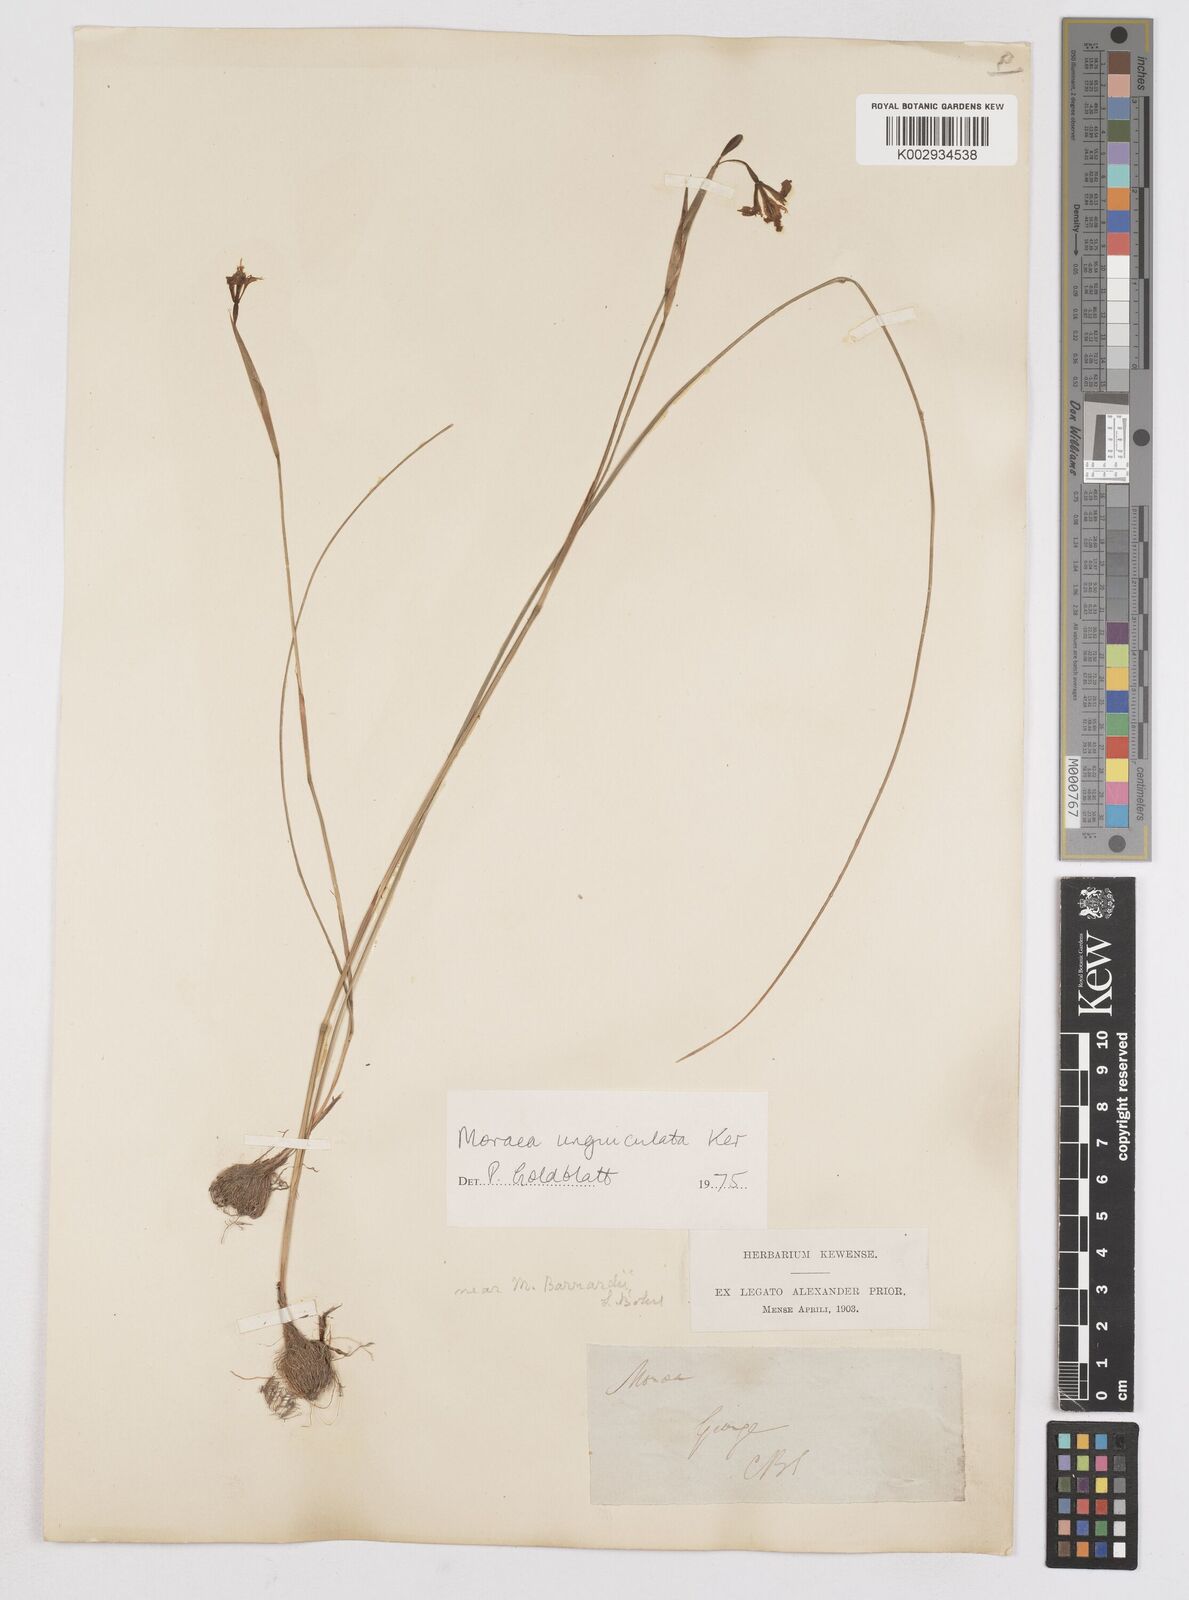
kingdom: Plantae
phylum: Tracheophyta
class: Liliopsida
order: Asparagales
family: Iridaceae
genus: Moraea
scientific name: Moraea unguiculata
